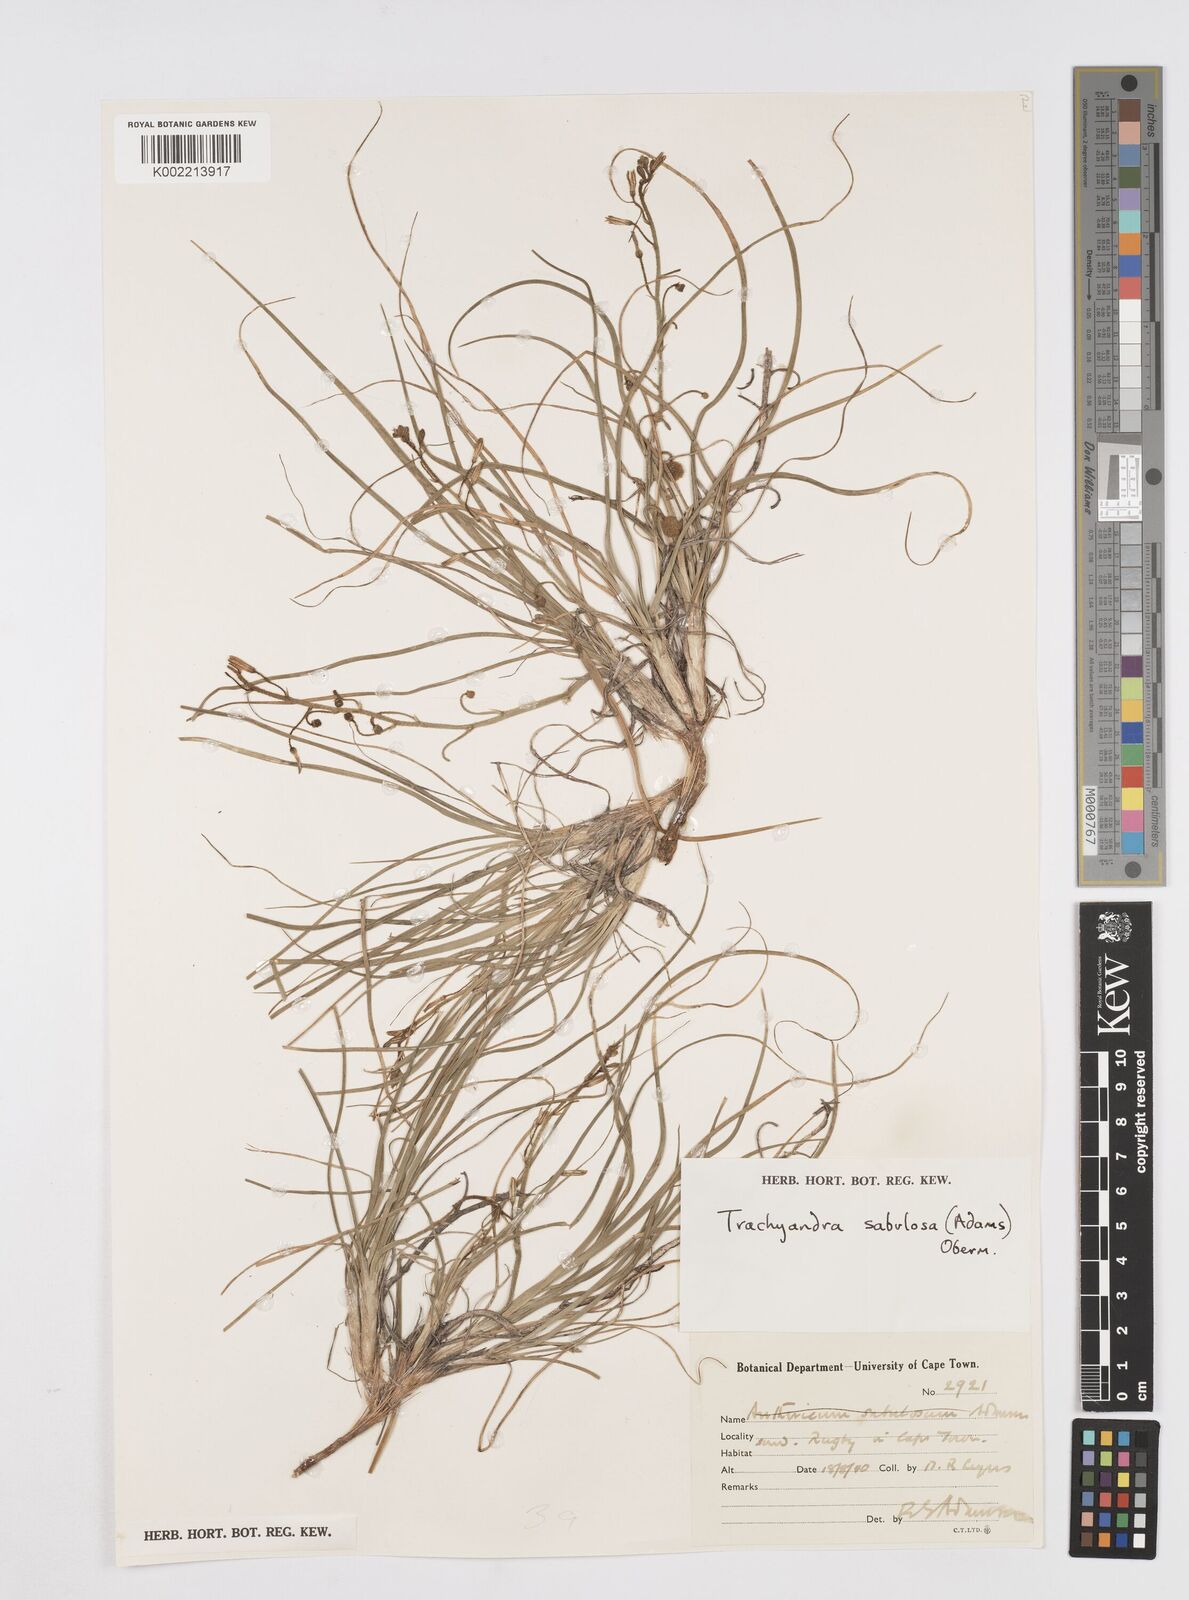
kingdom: Plantae
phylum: Tracheophyta
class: Liliopsida
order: Asparagales
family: Asphodelaceae
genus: Trachyandra
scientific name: Trachyandra sabulosa
